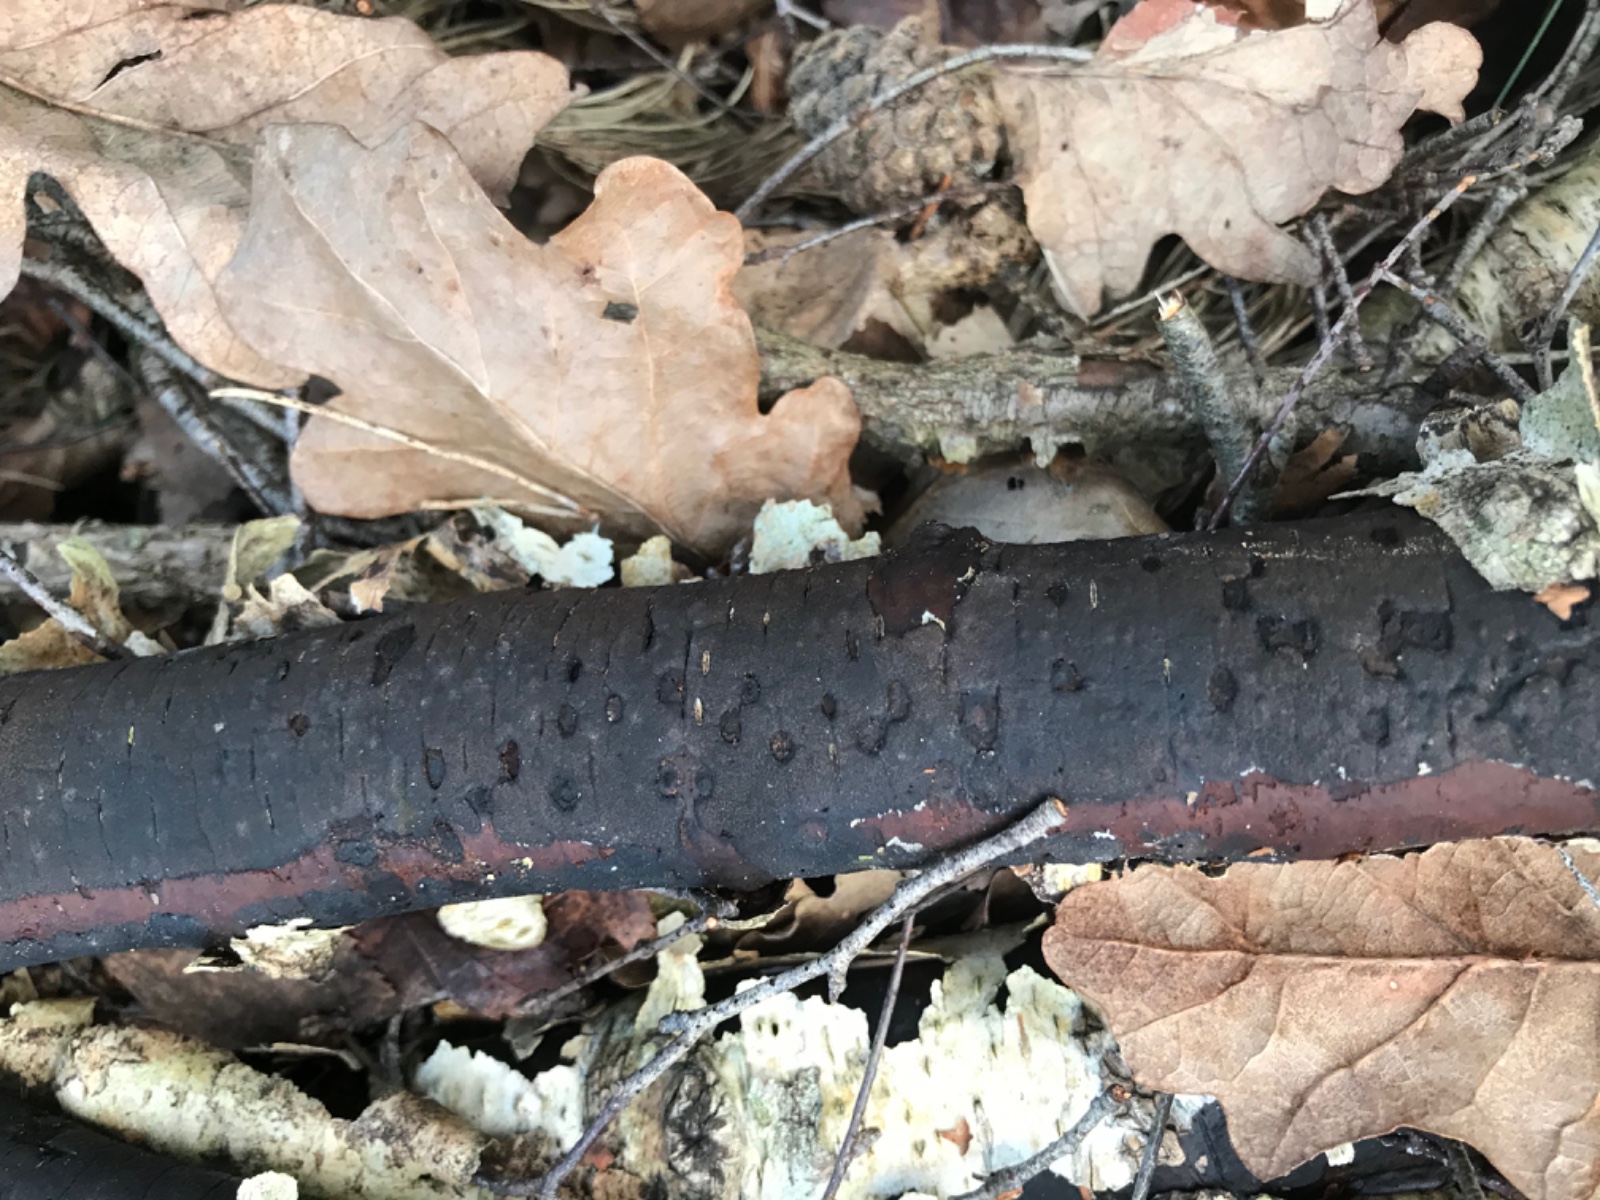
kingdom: Fungi
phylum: Ascomycota
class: Sordariomycetes
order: Xylariales
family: Diatrypaceae
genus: Diatrype
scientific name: Diatrype
